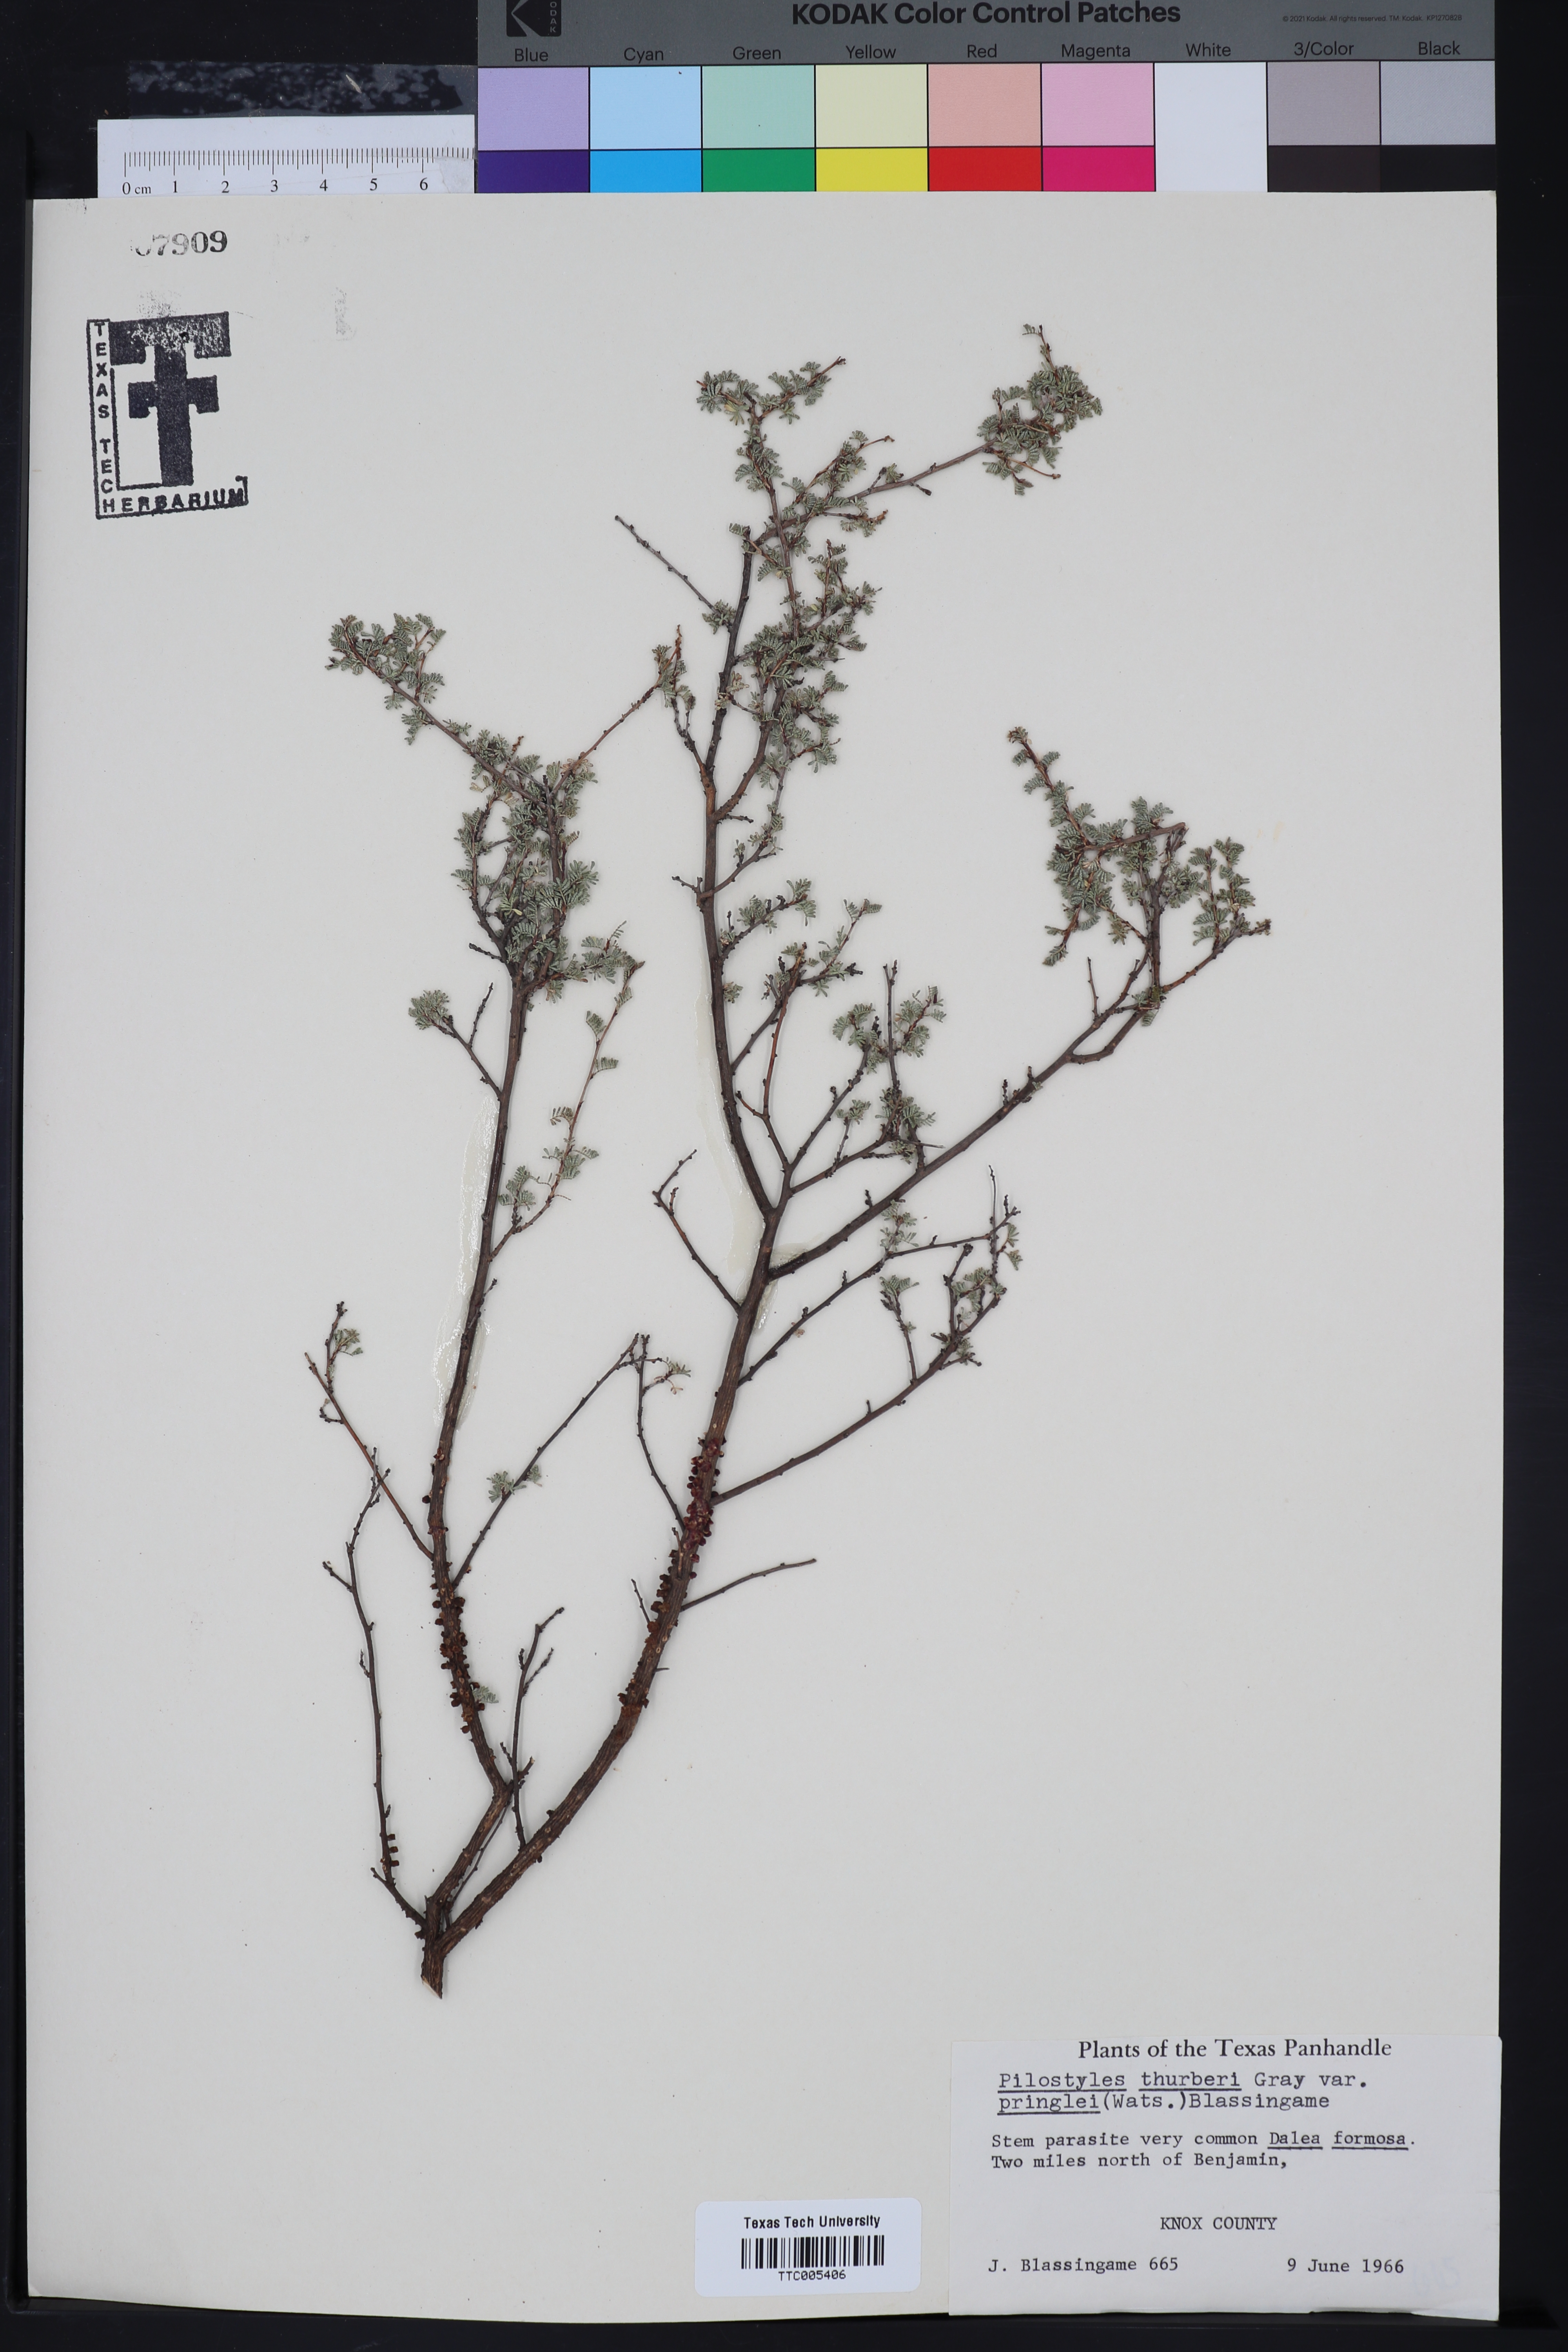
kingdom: Plantae
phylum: Tracheophyta
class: Magnoliopsida
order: Cucurbitales
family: Apodanthaceae
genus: Pilostyles
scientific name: Pilostyles thurberi
